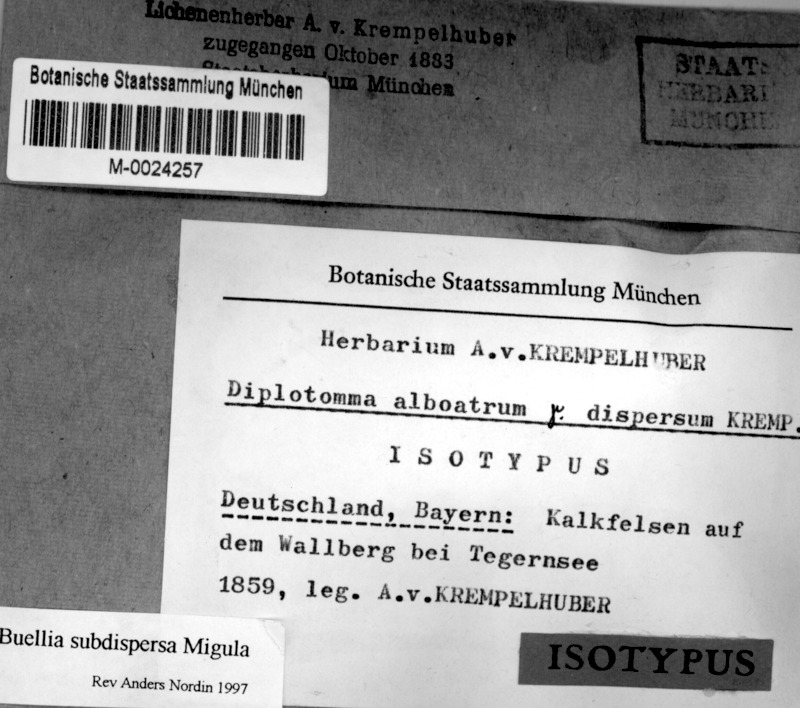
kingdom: Fungi
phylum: Ascomycota
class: Lecanoromycetes
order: Caliciales
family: Caliciaceae
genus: Diplotomma
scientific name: Diplotomma lutosum
